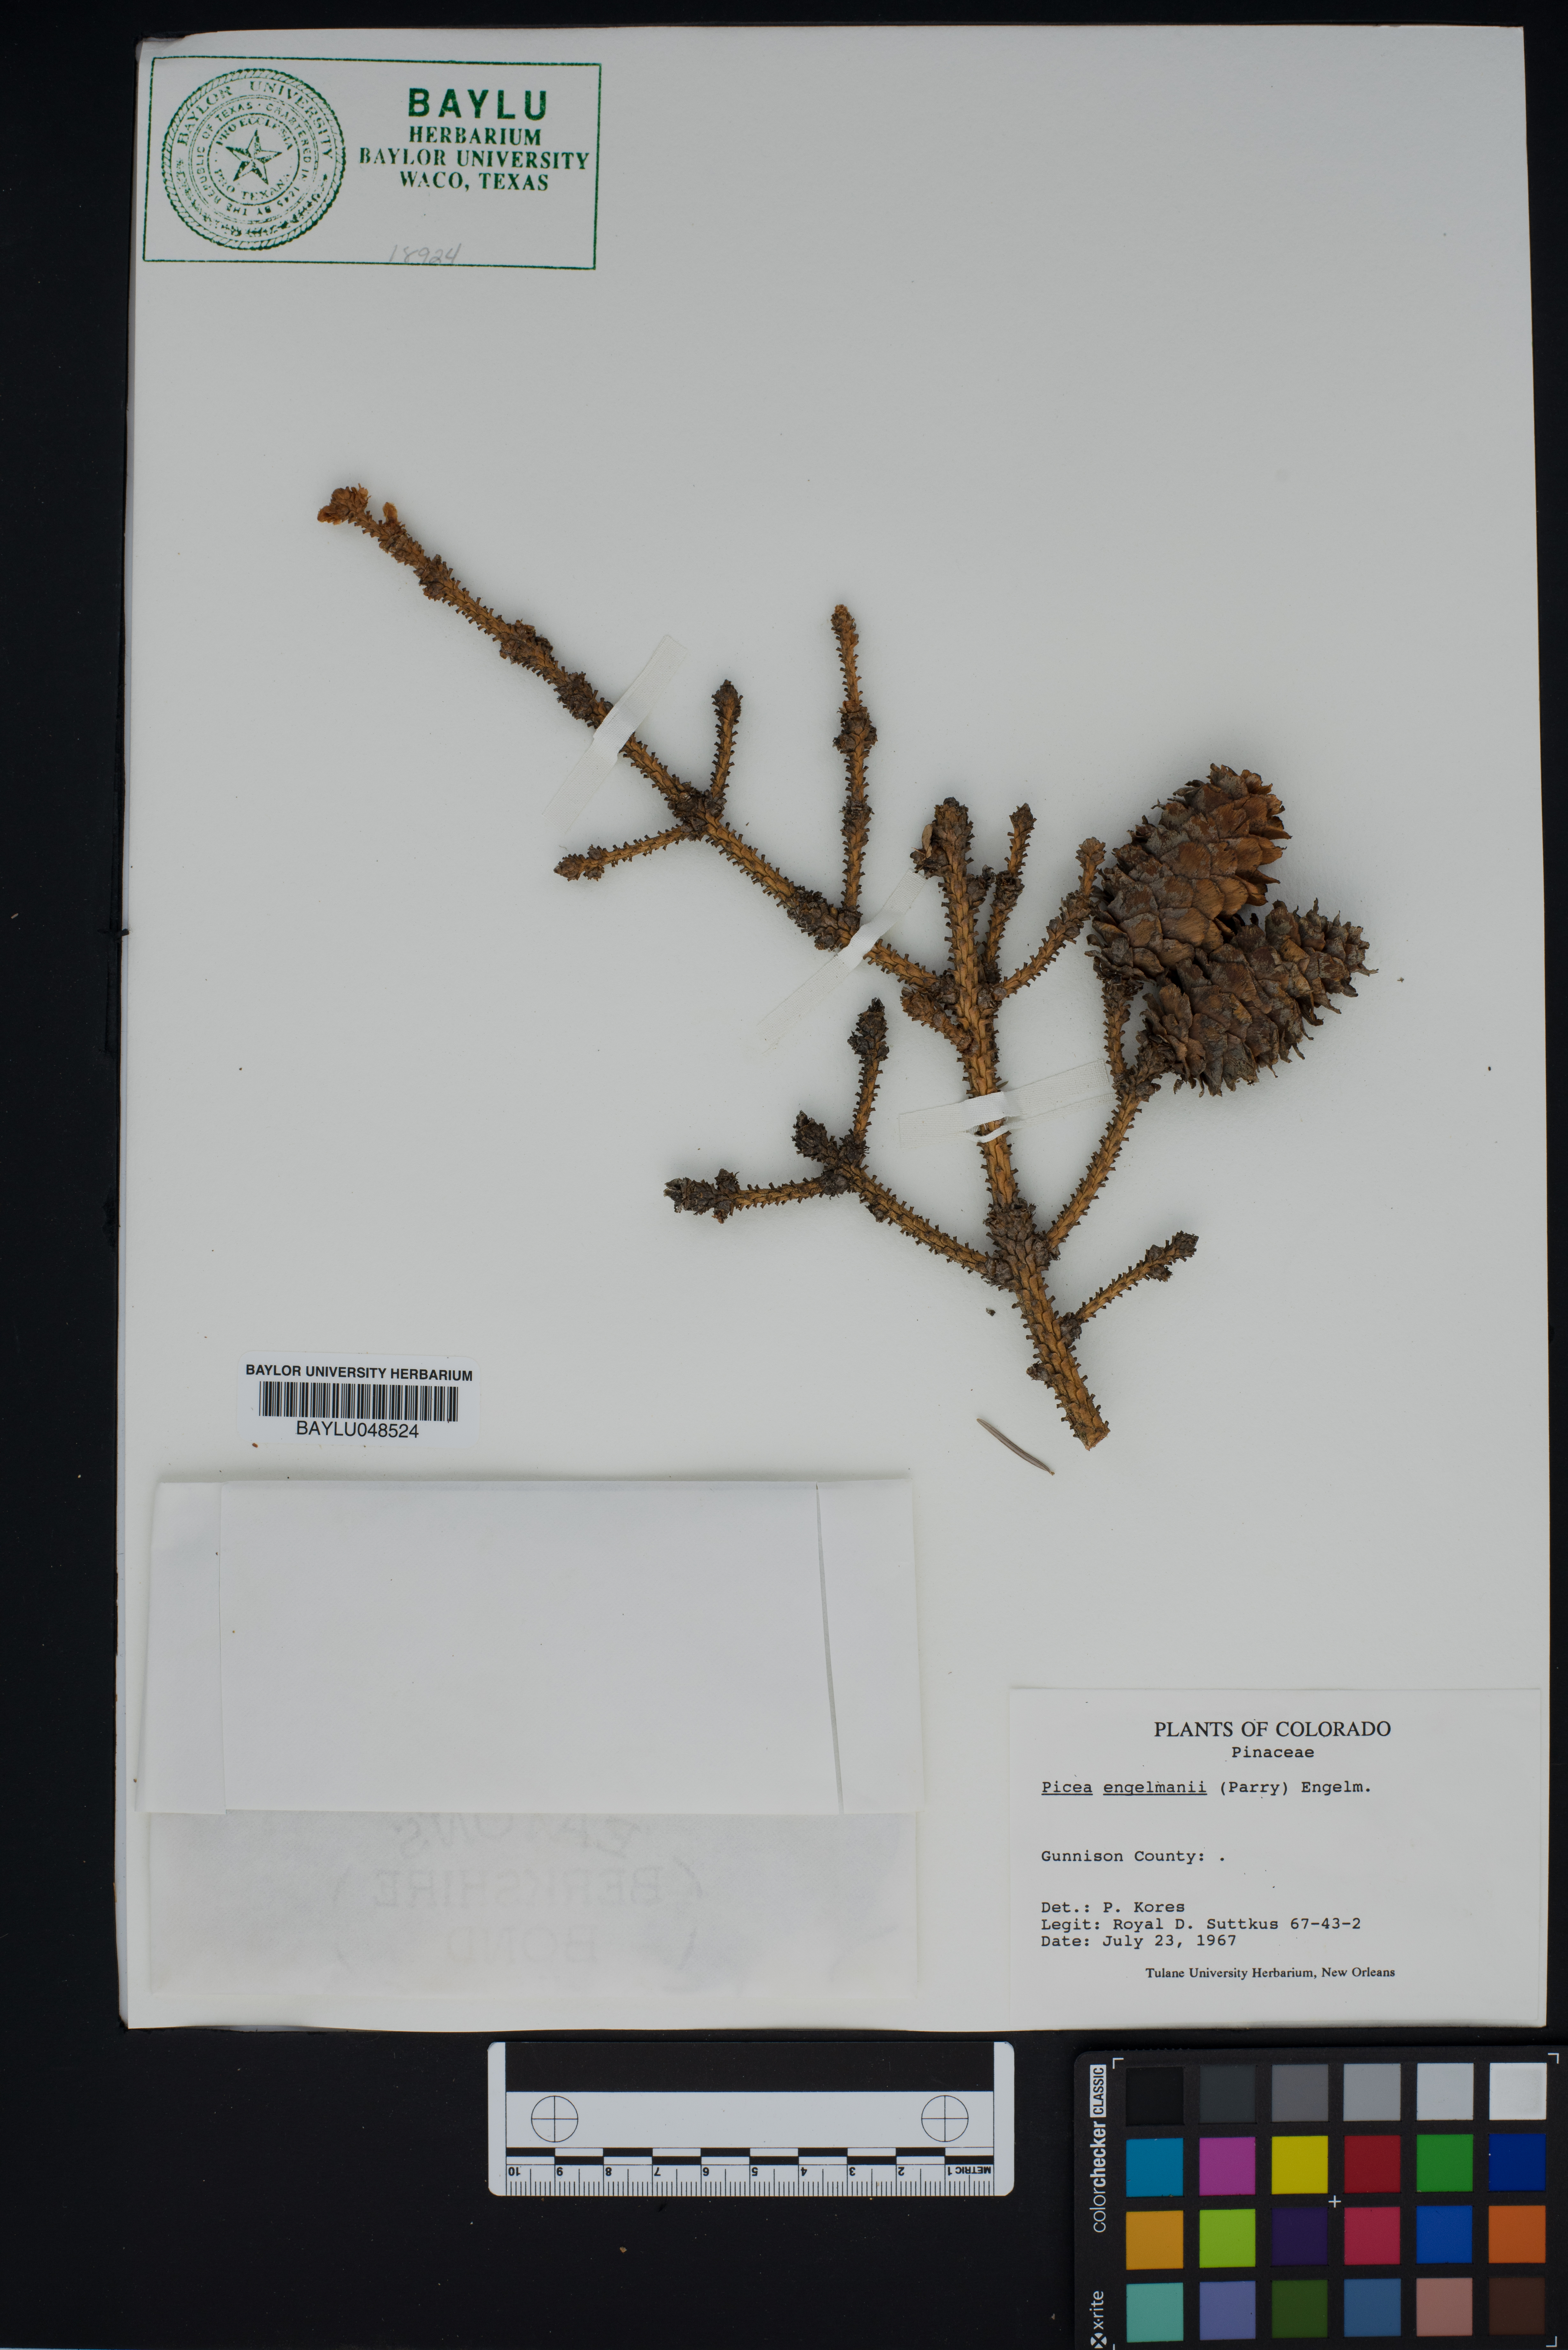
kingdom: Plantae
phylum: Tracheophyta
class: Pinopsida
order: Pinales
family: Pinaceae
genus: Picea
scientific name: Picea engelmannii
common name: Engelmann spruce
